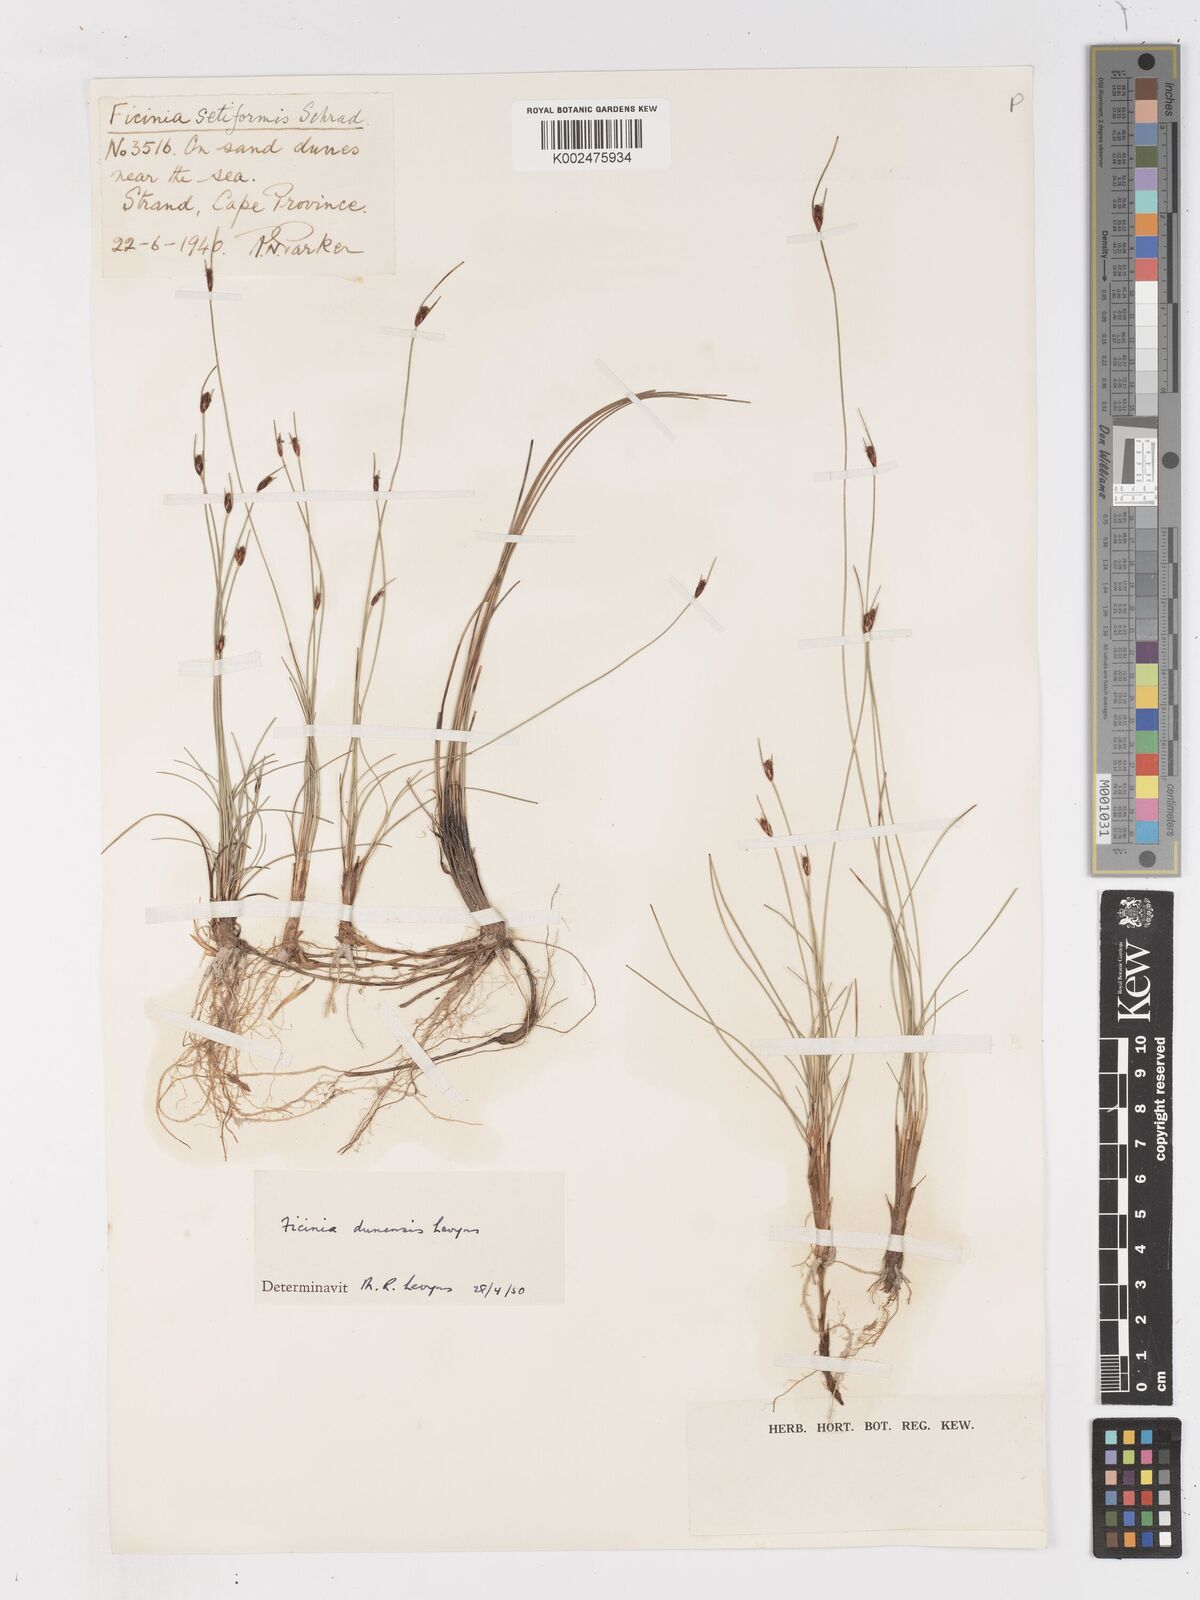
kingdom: Plantae
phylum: Tracheophyta
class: Liliopsida
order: Poales
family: Cyperaceae
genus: Ficinia
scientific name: Ficinia dunensis
